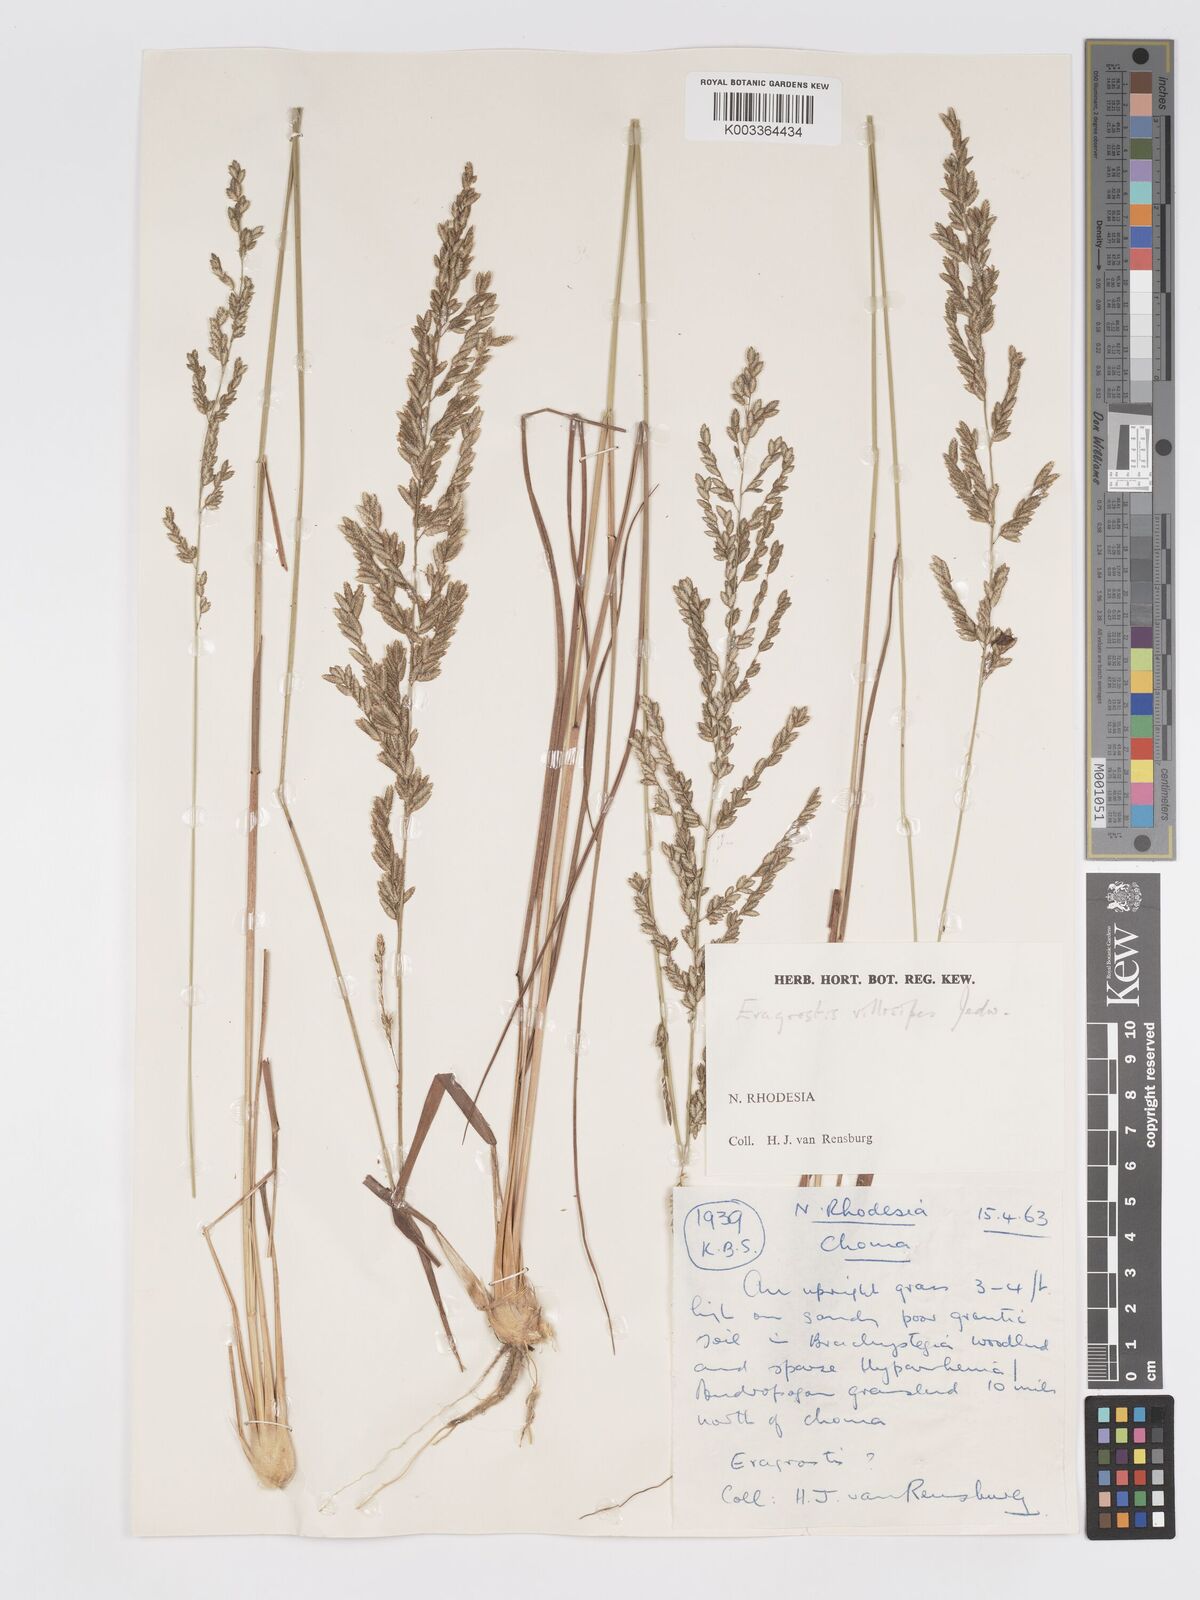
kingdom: Plantae
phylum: Tracheophyta
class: Liliopsida
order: Poales
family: Poaceae
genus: Eragrostis
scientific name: Eragrostis sclerantha
